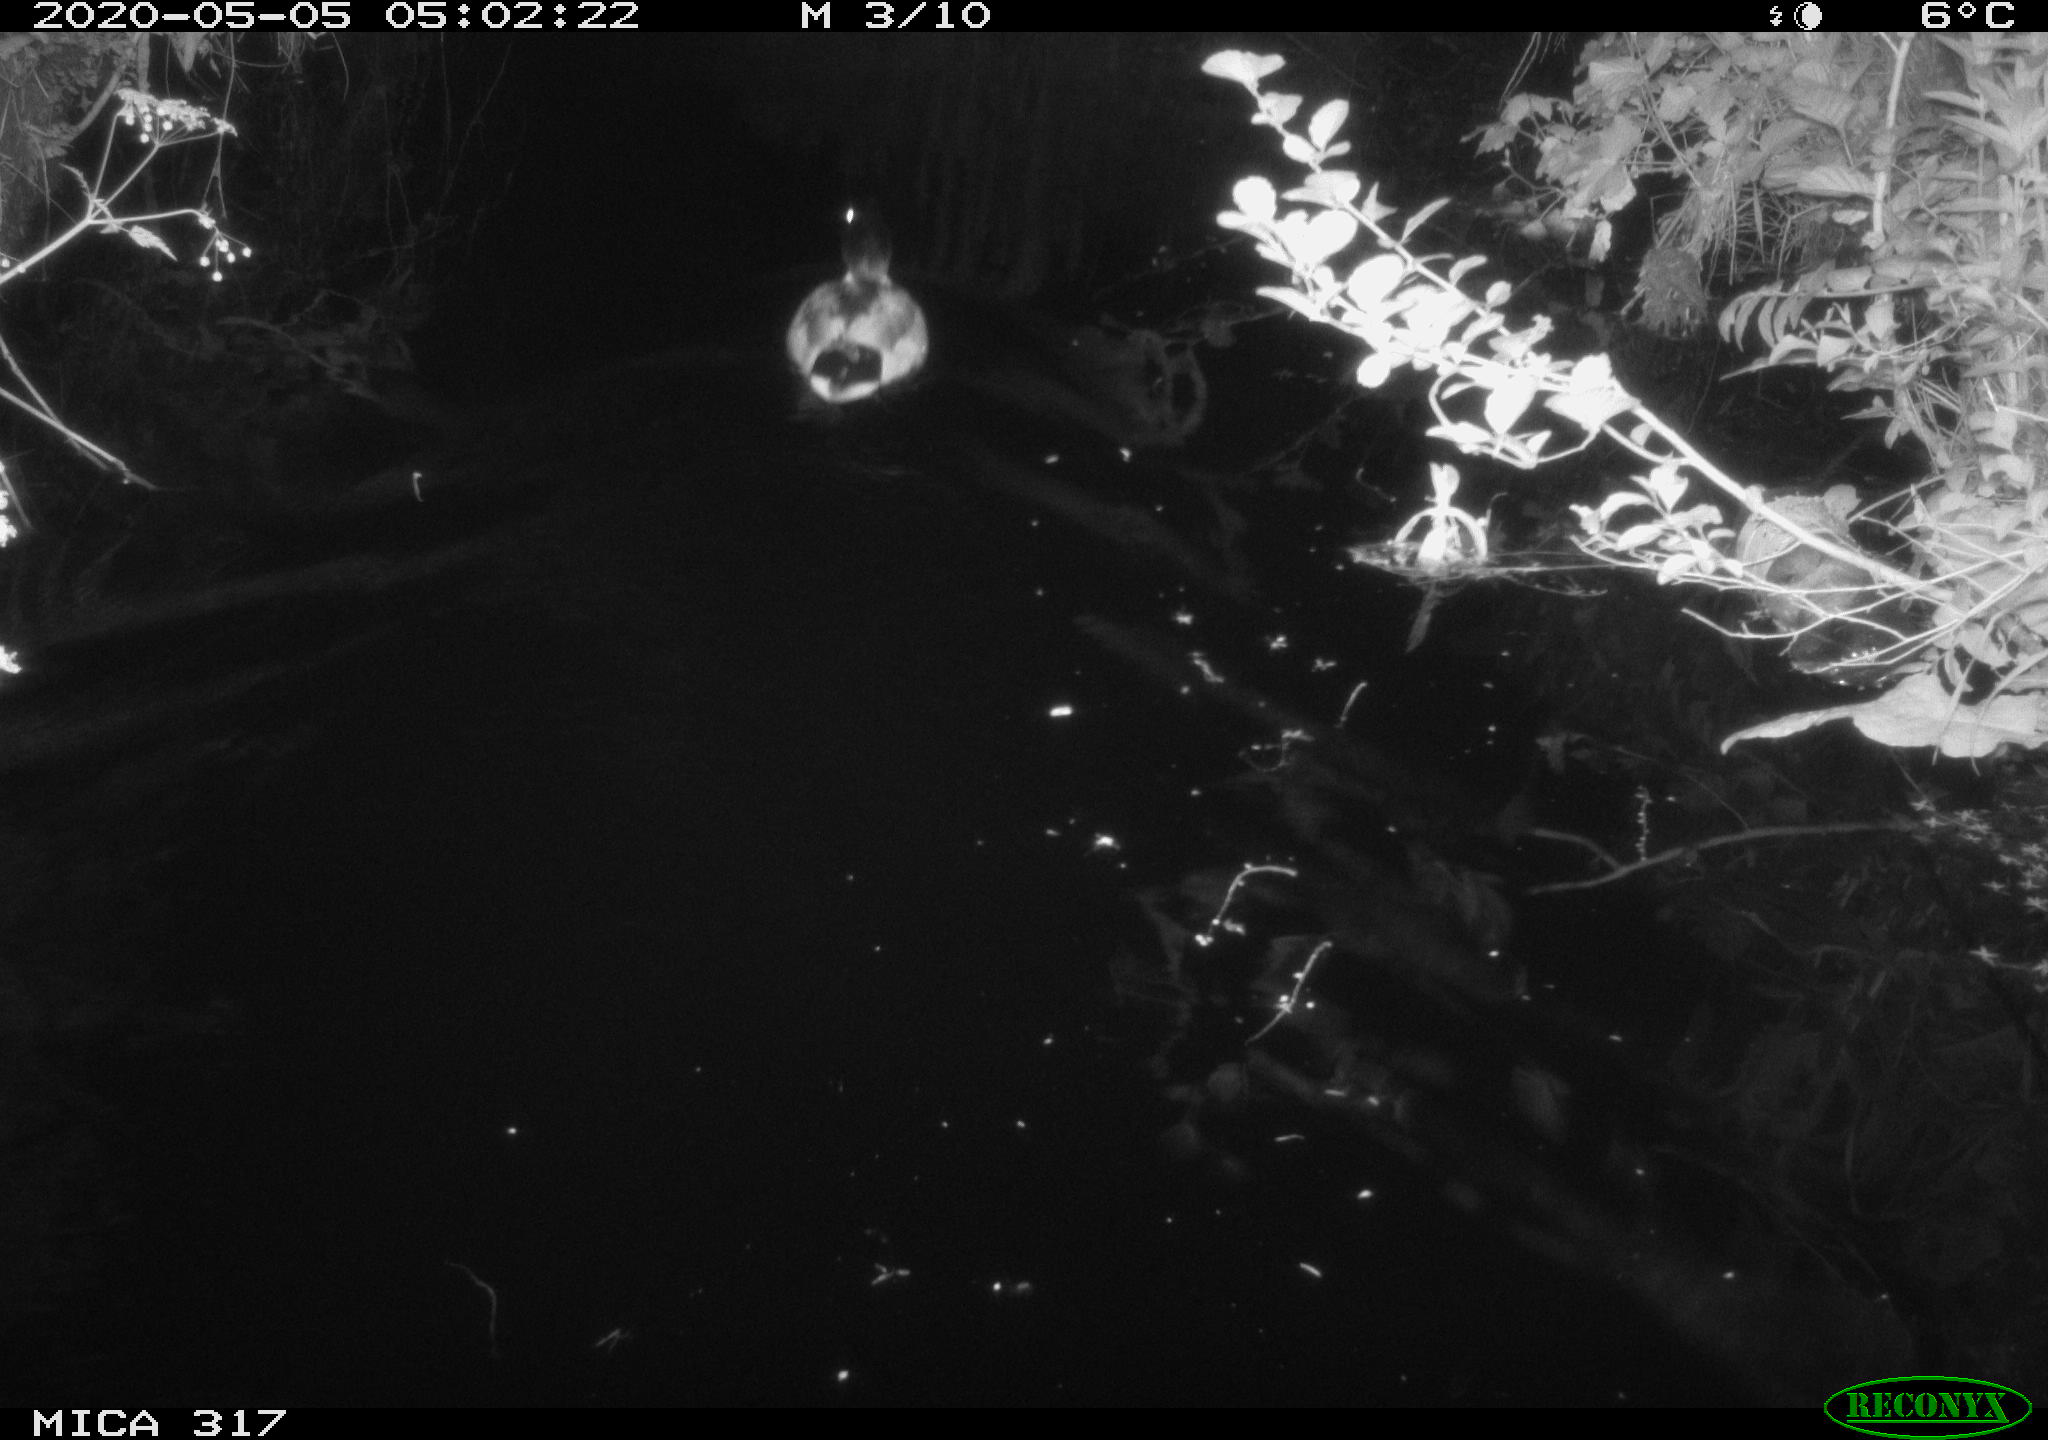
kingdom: Animalia
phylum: Chordata
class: Aves
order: Anseriformes
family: Anatidae
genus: Anas
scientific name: Anas platyrhynchos
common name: Mallard
